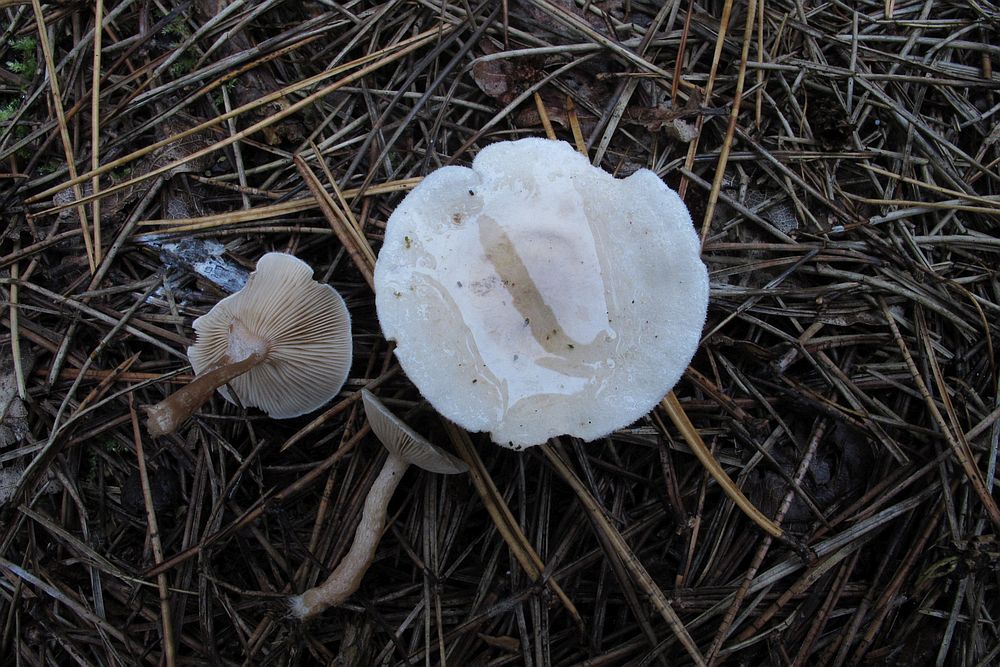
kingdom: Fungi
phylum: Basidiomycota
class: Agaricomycetes
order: Agaricales
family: Tricholomataceae
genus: Ripartites
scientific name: Ripartites tricholoma
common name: almindelig skæghat
